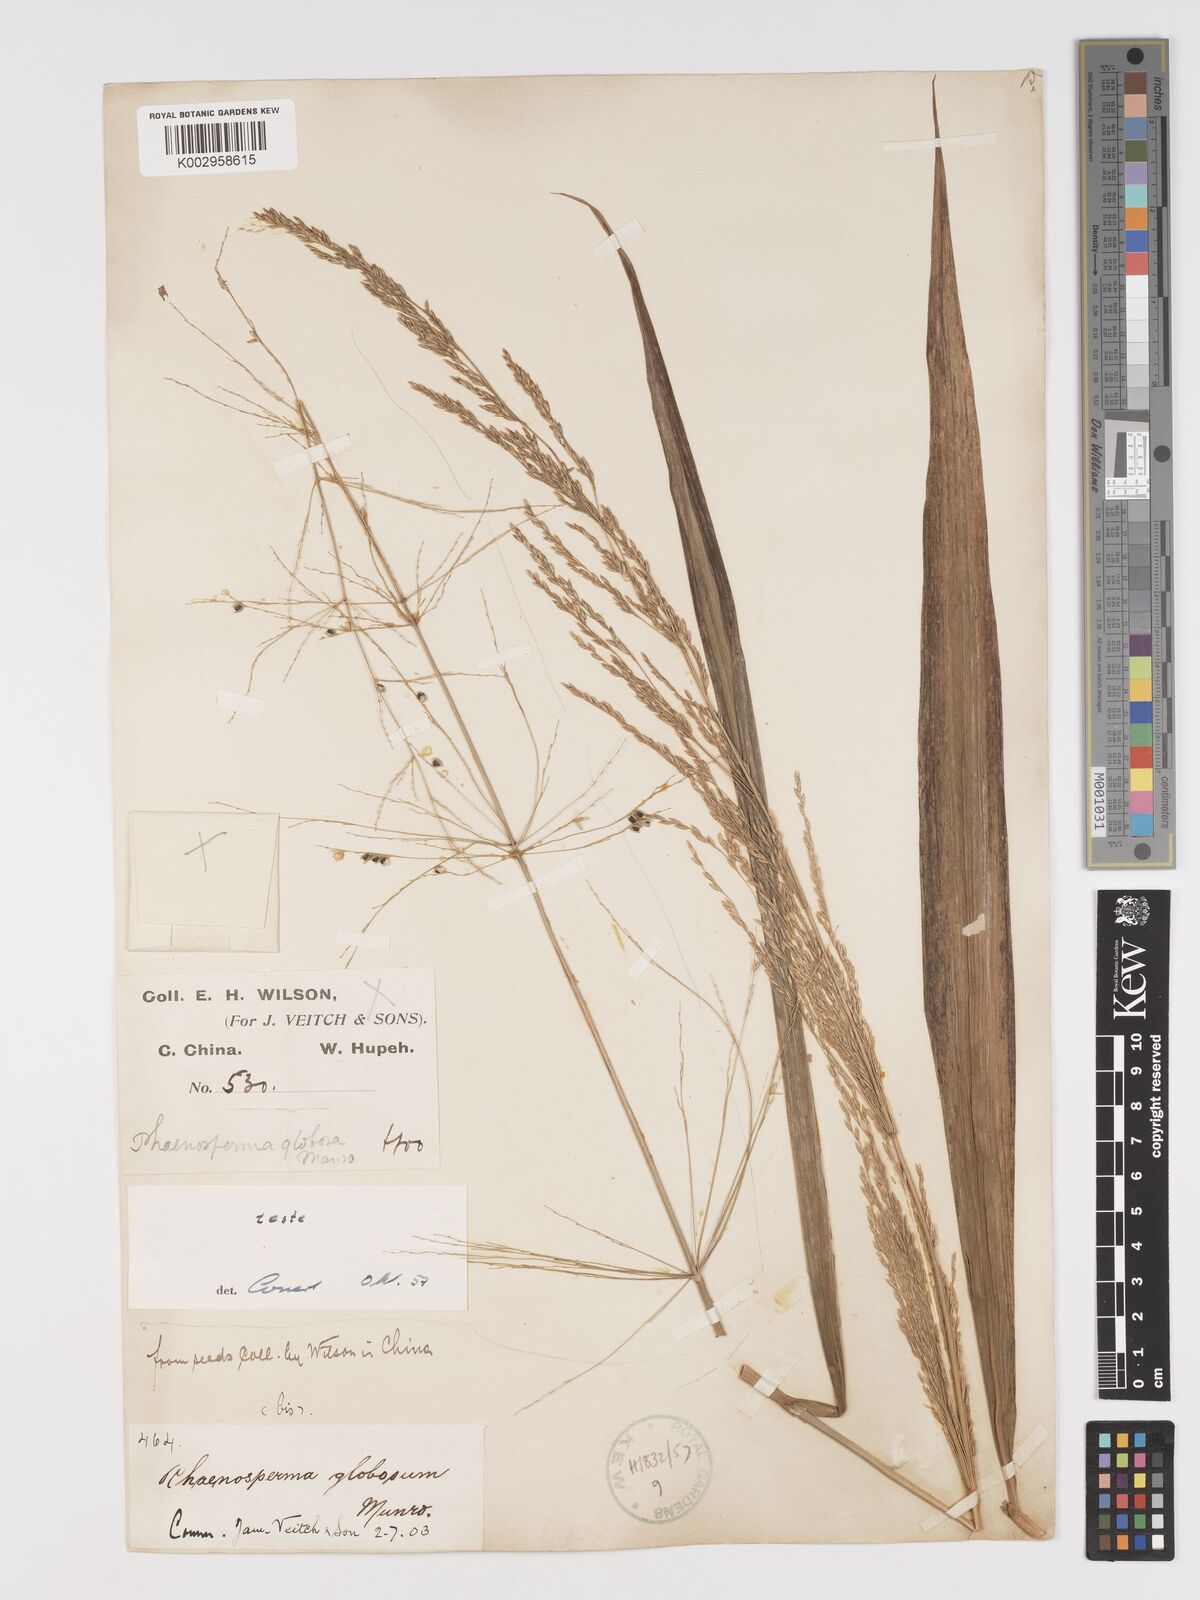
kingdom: Plantae
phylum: Tracheophyta
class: Liliopsida
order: Poales
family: Poaceae
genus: Phaenosperma
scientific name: Phaenosperma globosum
